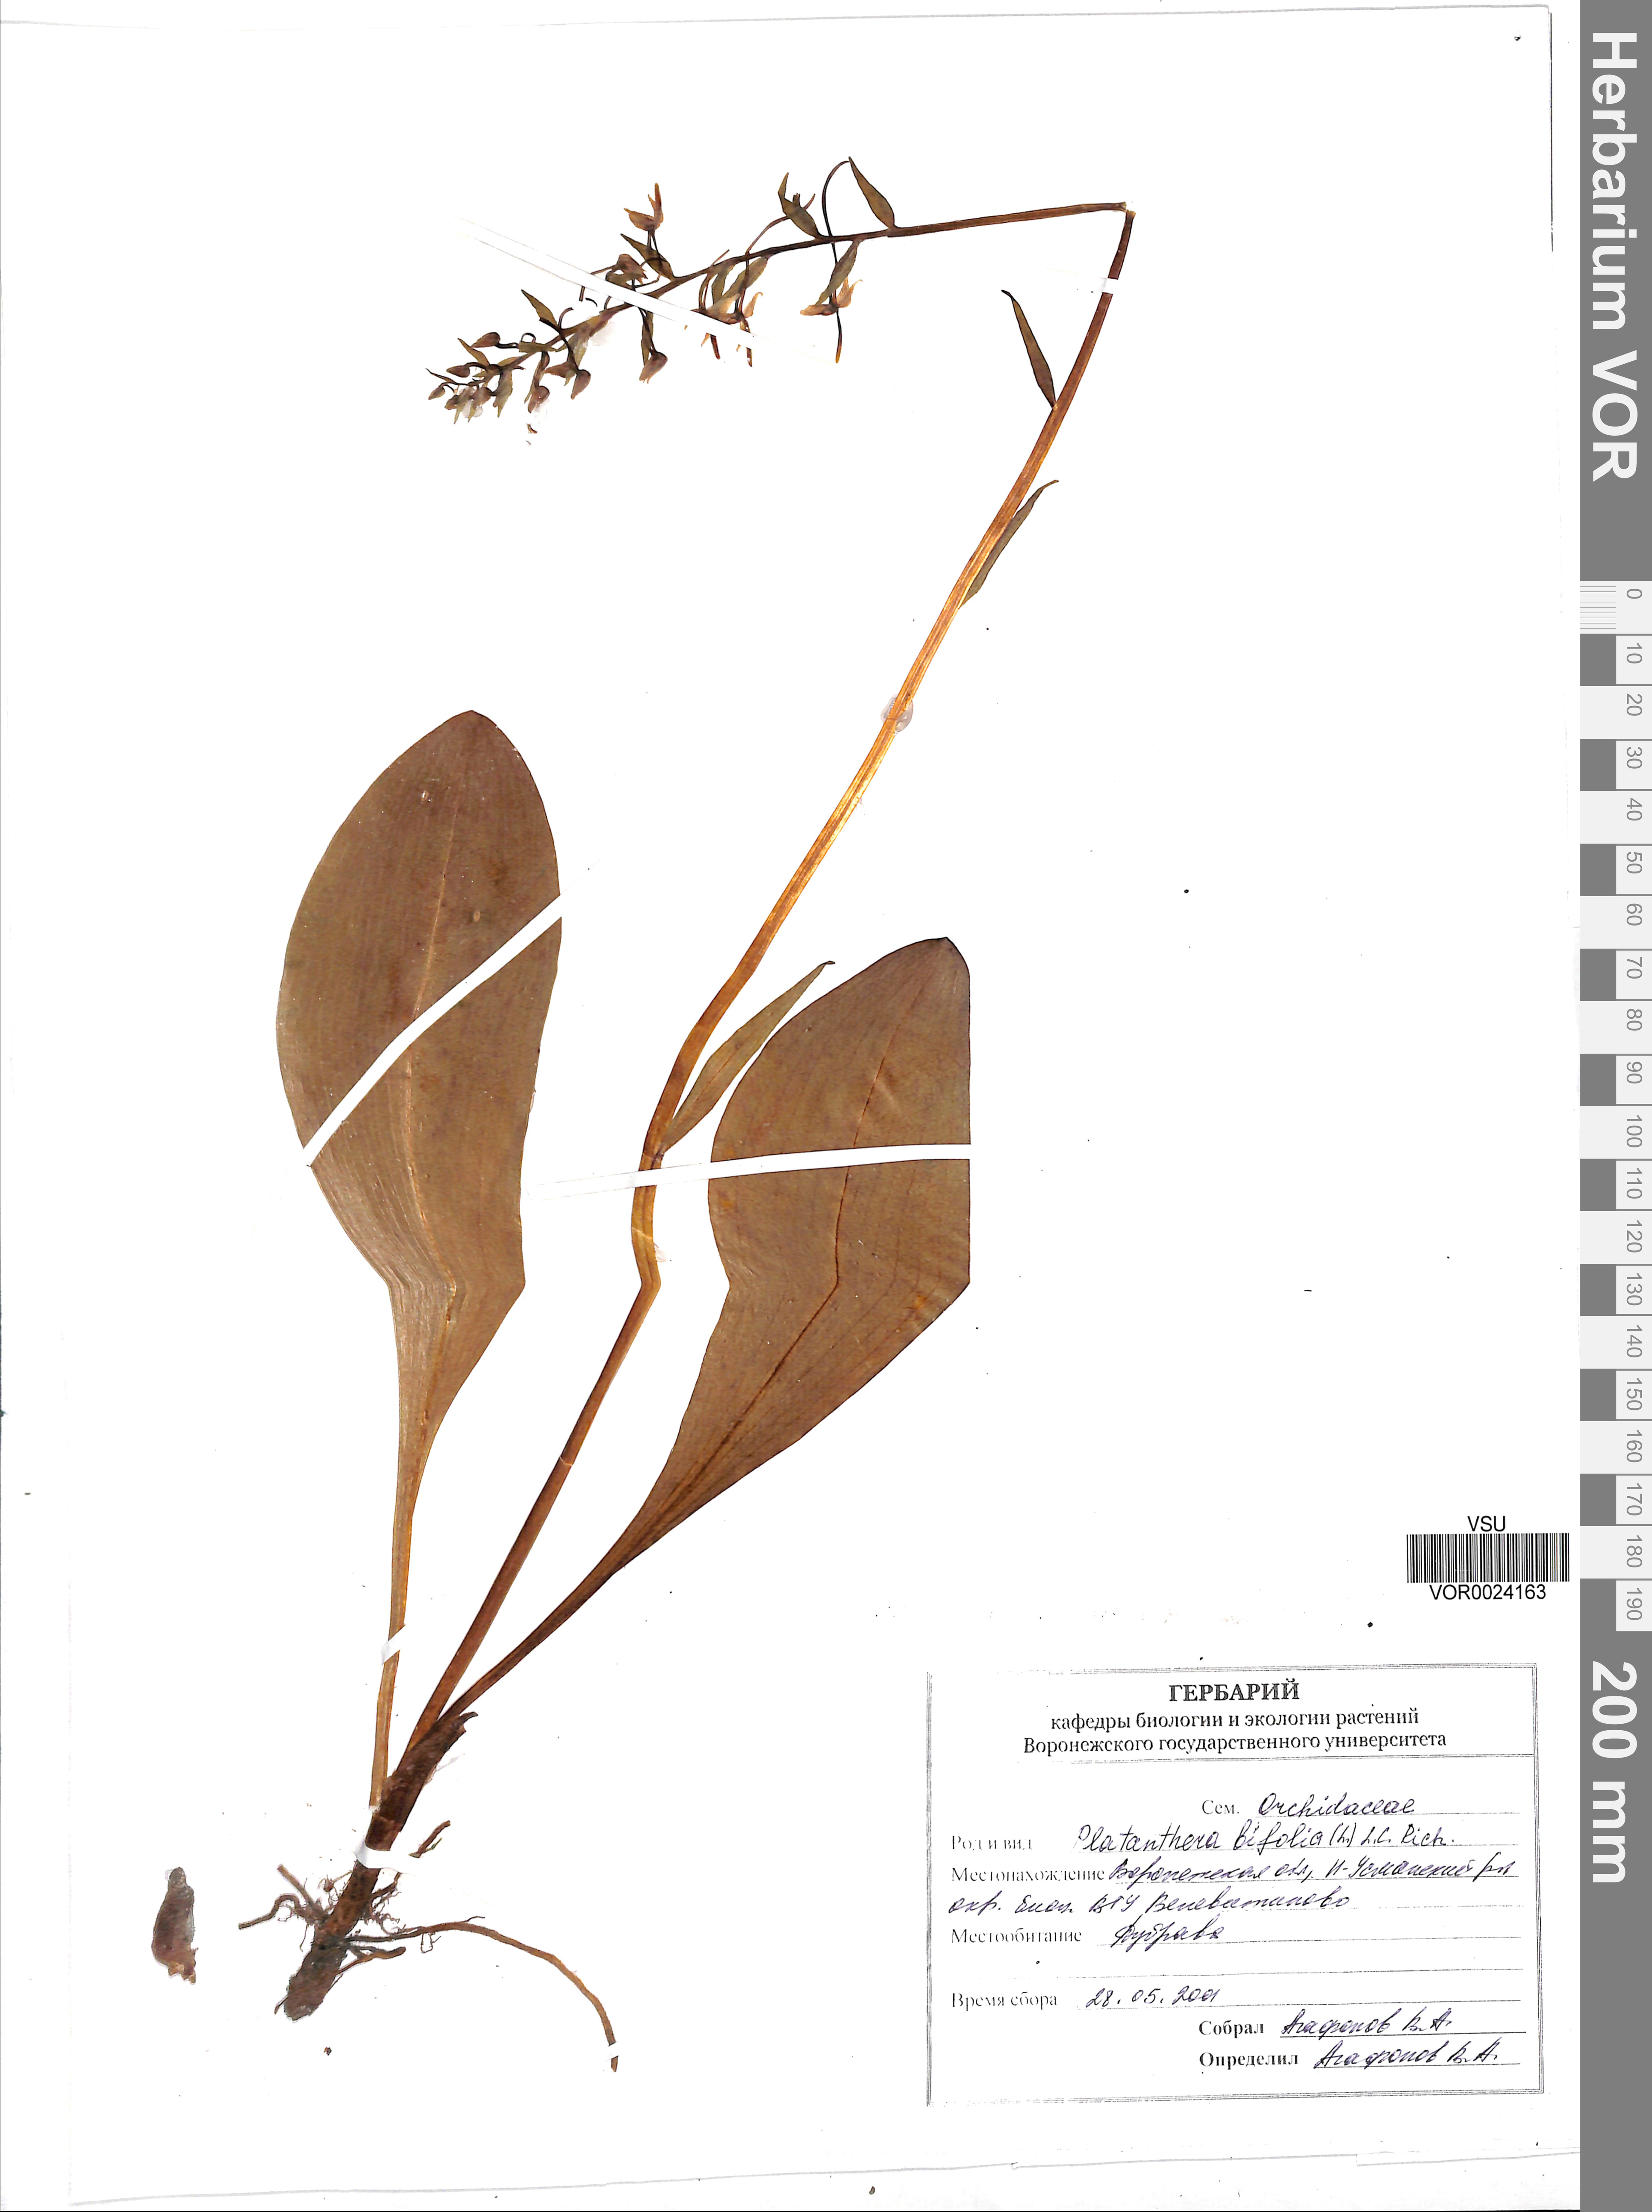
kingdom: Plantae
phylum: Tracheophyta
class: Liliopsida
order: Asparagales
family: Orchidaceae
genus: Platanthera
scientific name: Platanthera bifolia
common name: Lesser butterfly-orchid
